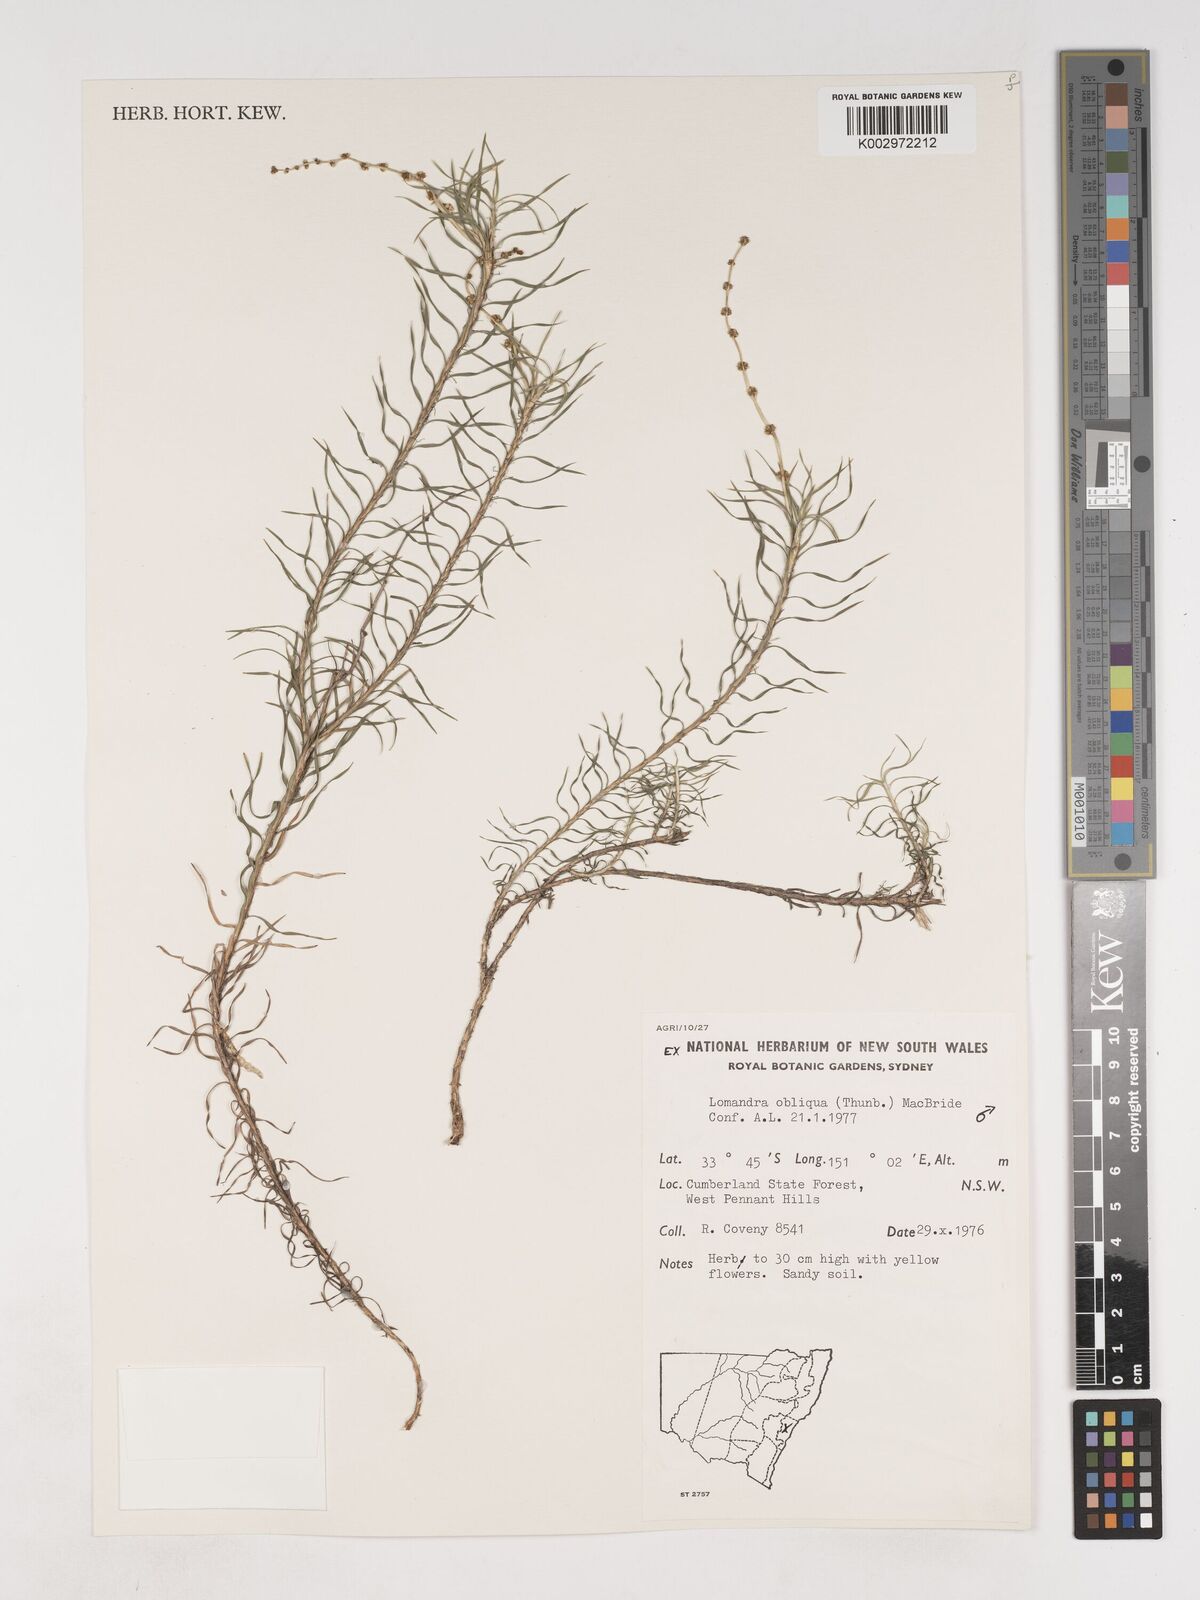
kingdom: Plantae
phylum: Tracheophyta
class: Liliopsida
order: Asparagales
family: Asparagaceae
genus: Lomandra
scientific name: Lomandra obliqua
